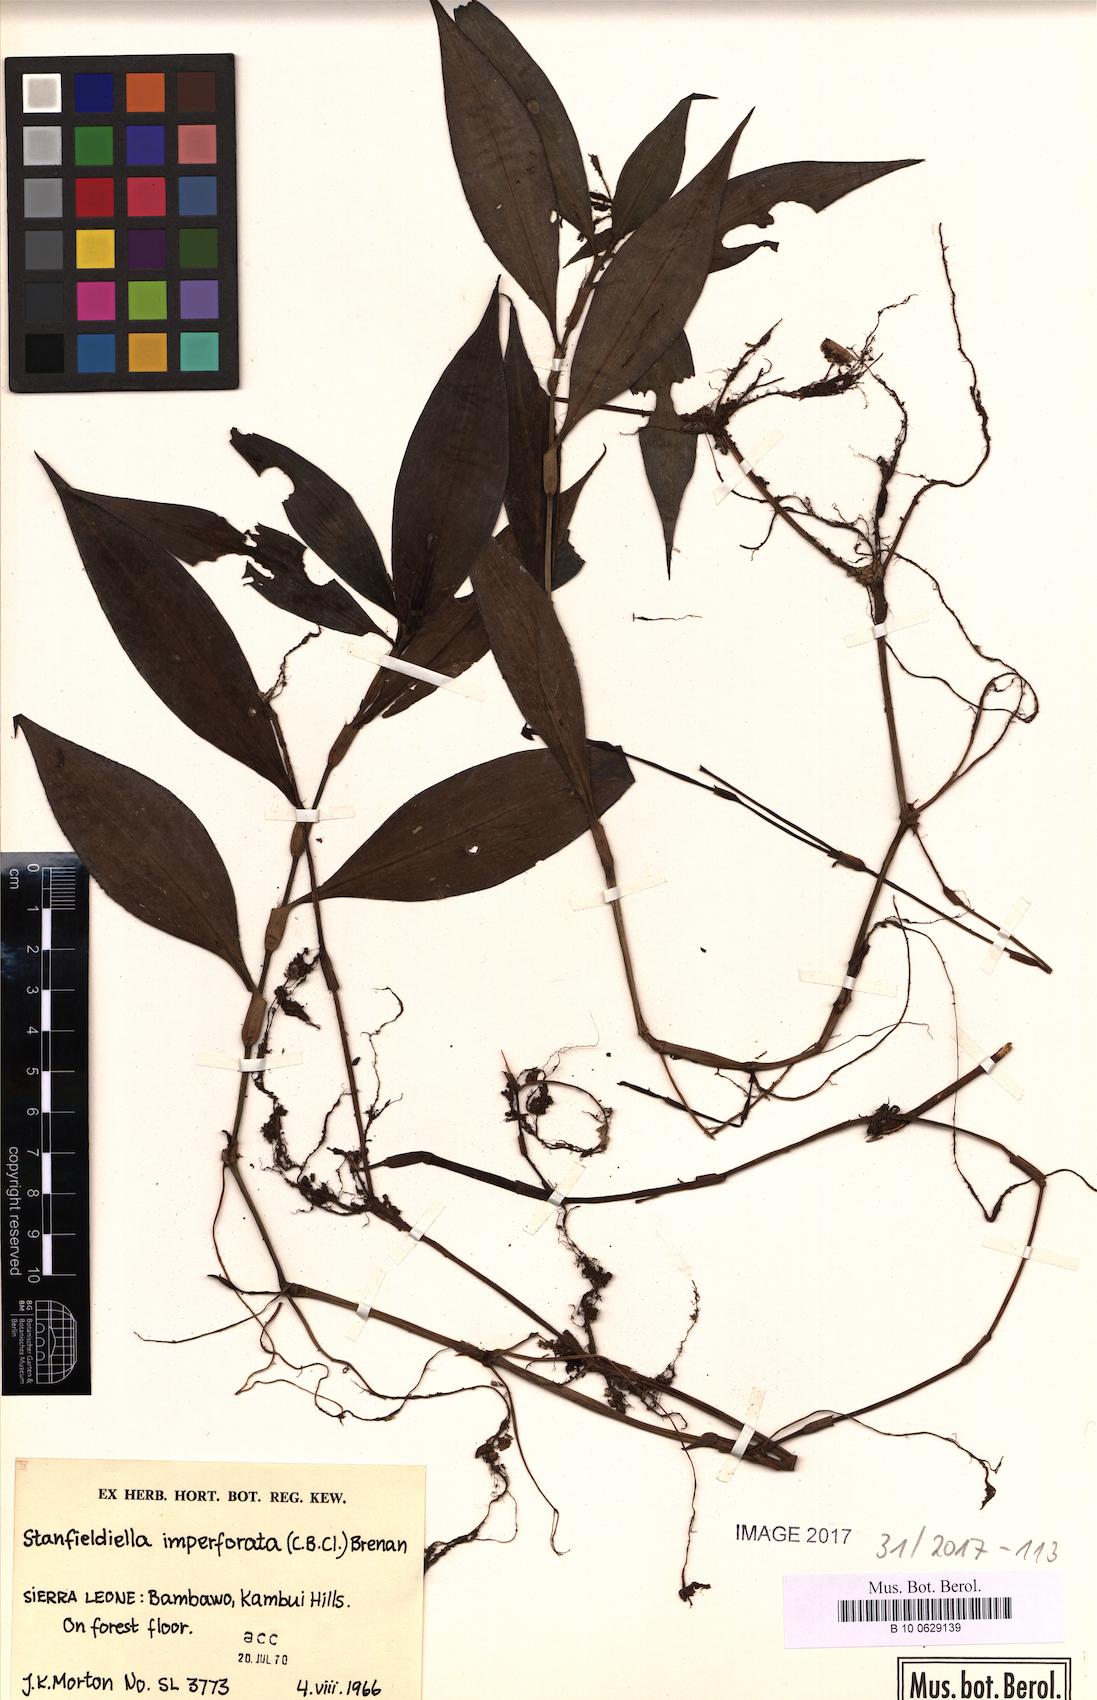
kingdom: Plantae
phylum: Tracheophyta
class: Liliopsida
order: Commelinales
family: Commelinaceae
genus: Stanfieldiella
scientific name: Stanfieldiella imperforata
